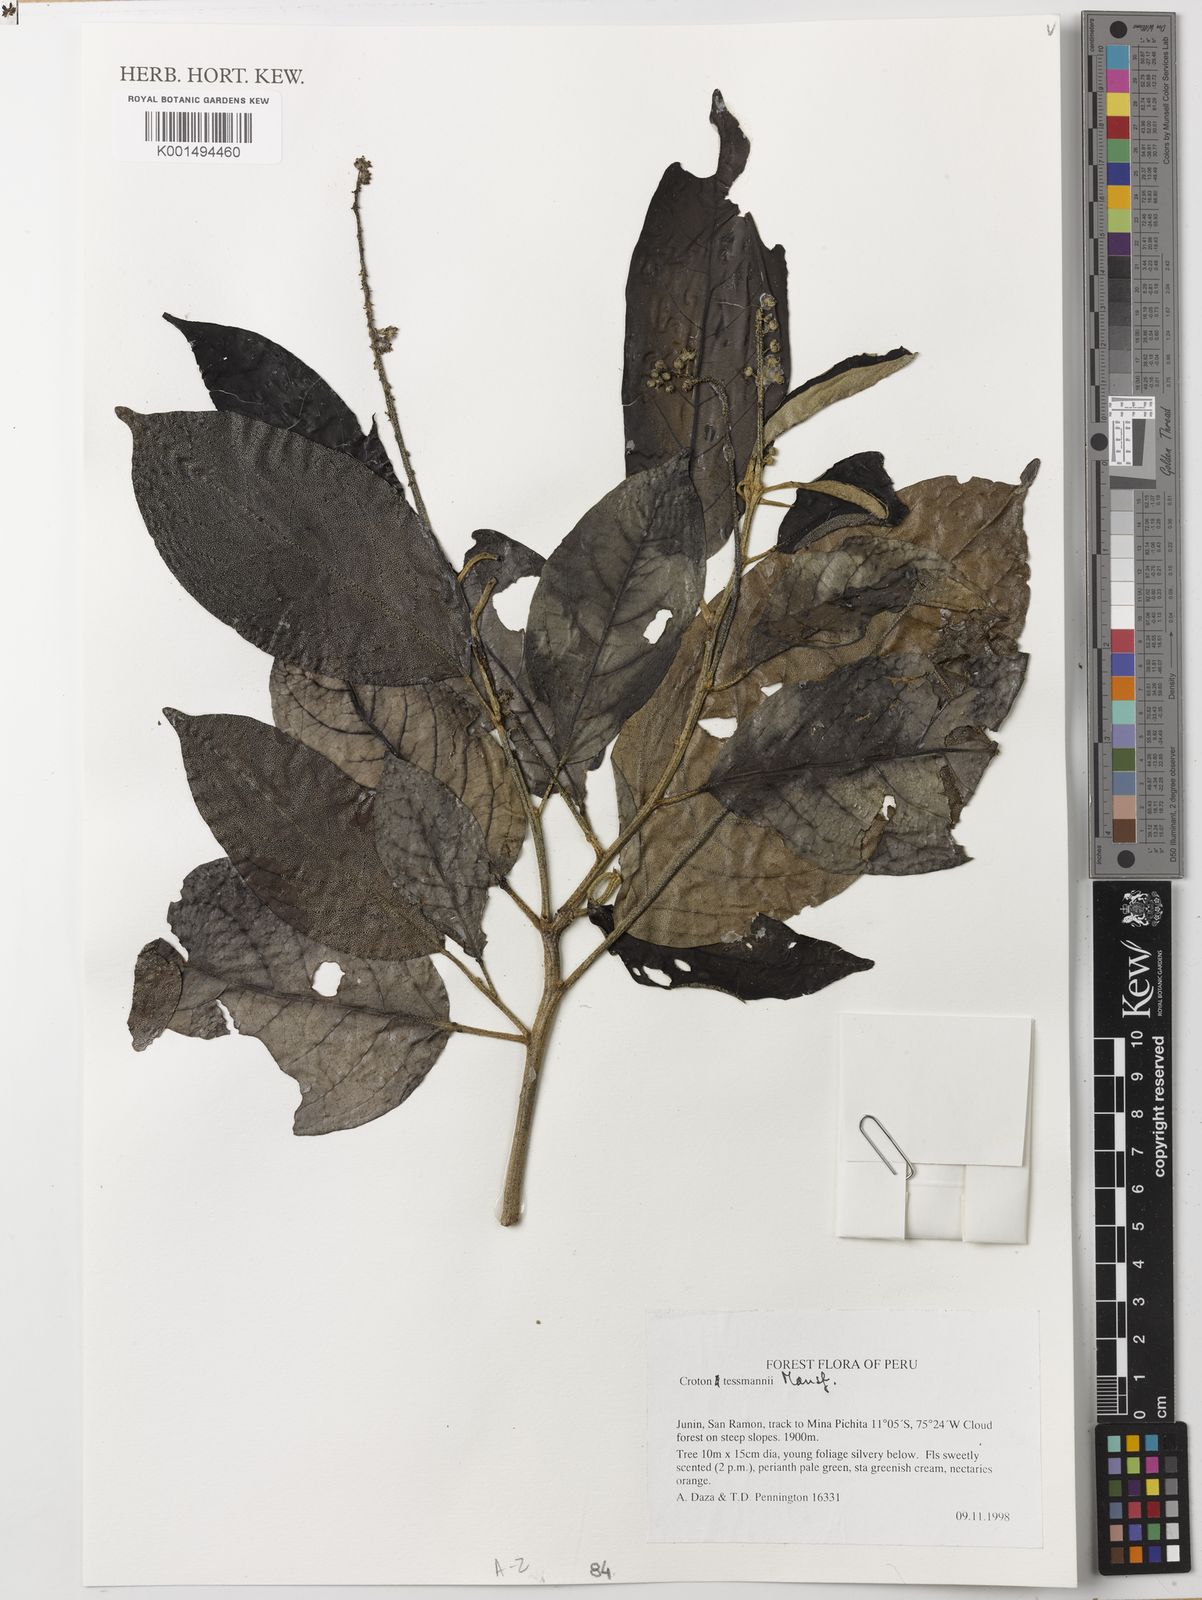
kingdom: Plantae
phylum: Tracheophyta
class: Magnoliopsida
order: Malpighiales
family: Euphorbiaceae
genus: Croton
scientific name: Croton tessmannii
